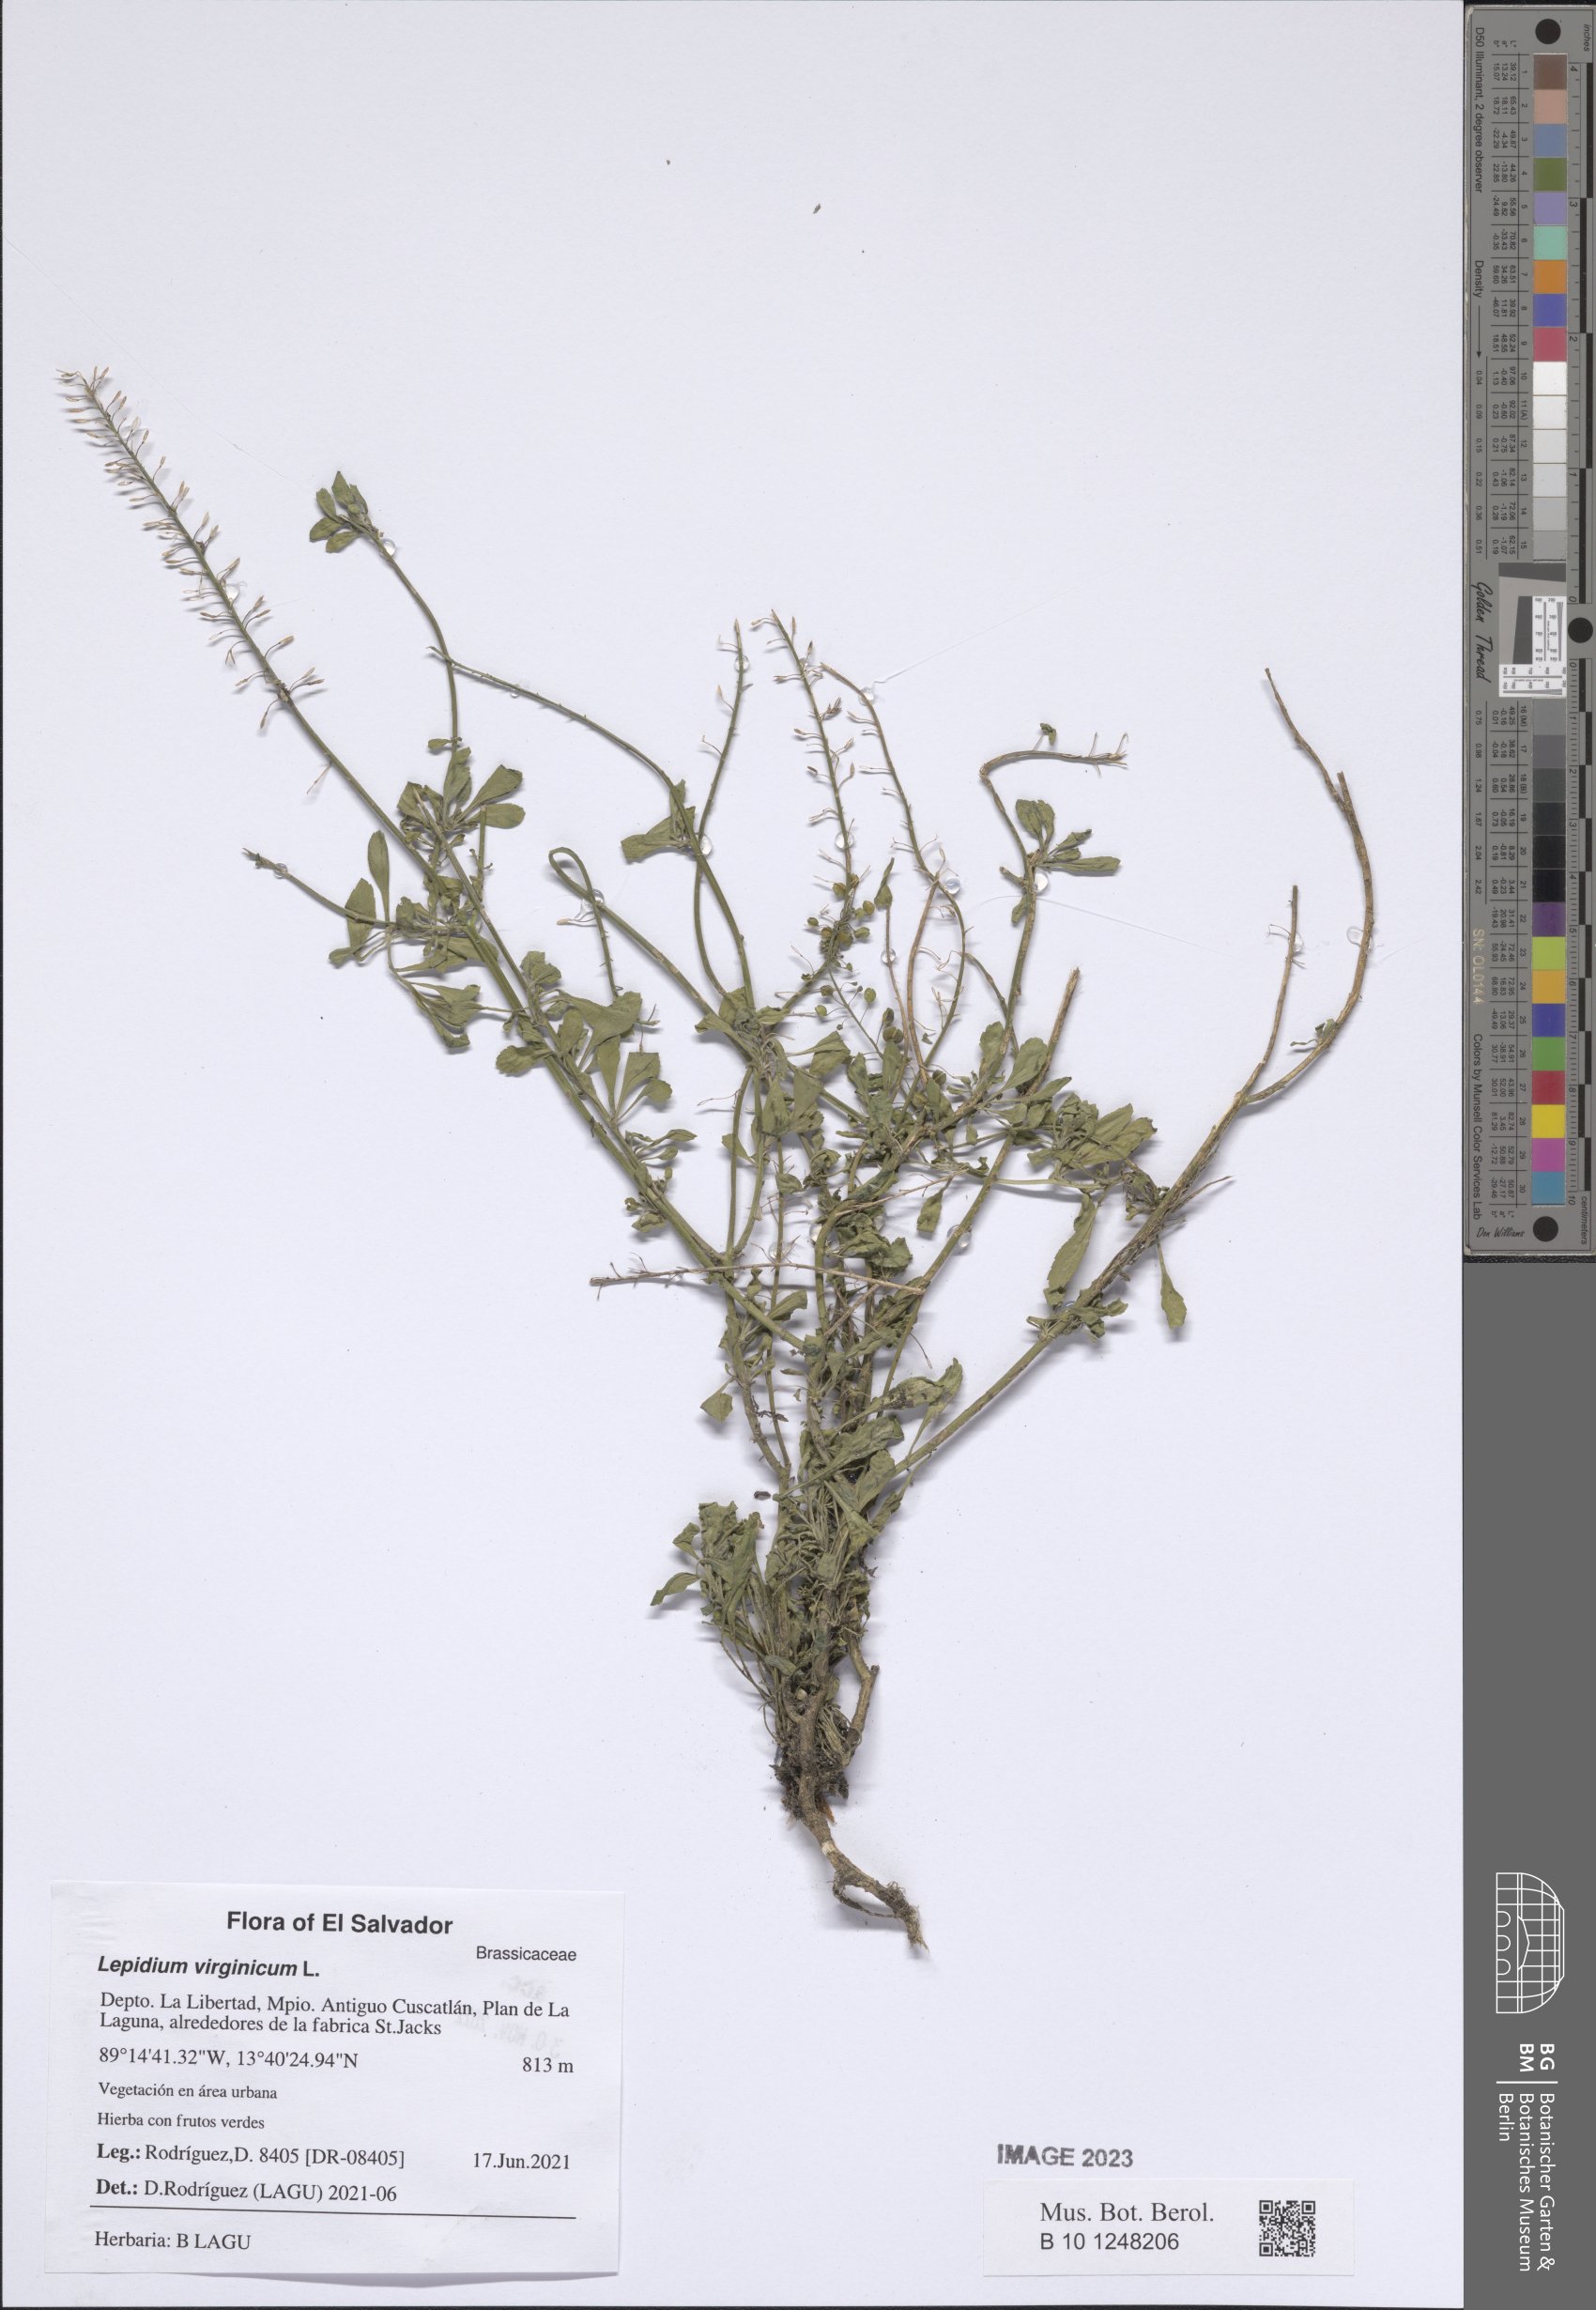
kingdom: Plantae
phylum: Tracheophyta
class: Magnoliopsida
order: Brassicales
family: Brassicaceae
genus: Lepidium
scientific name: Lepidium virginicum
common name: Least pepperwort
